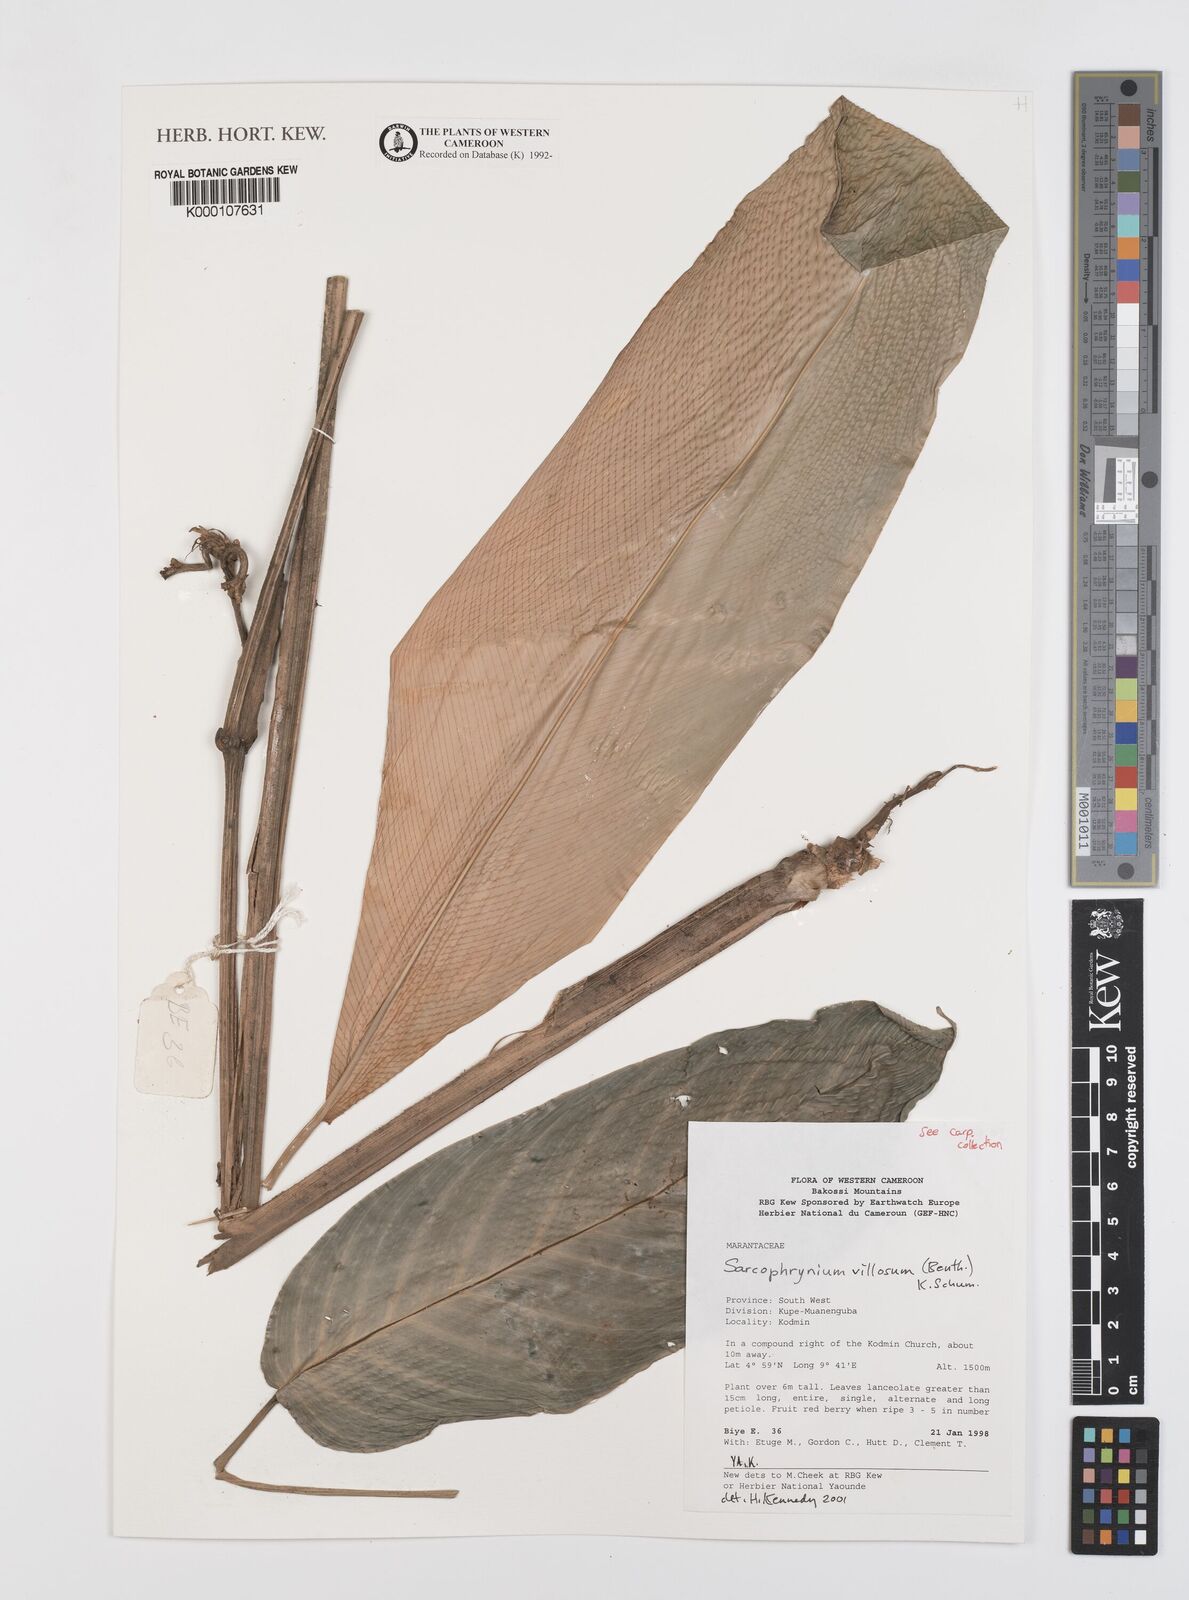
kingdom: Plantae
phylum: Tracheophyta
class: Liliopsida
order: Zingiberales
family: Marantaceae
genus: Sarcophrynium
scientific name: Sarcophrynium villosum
